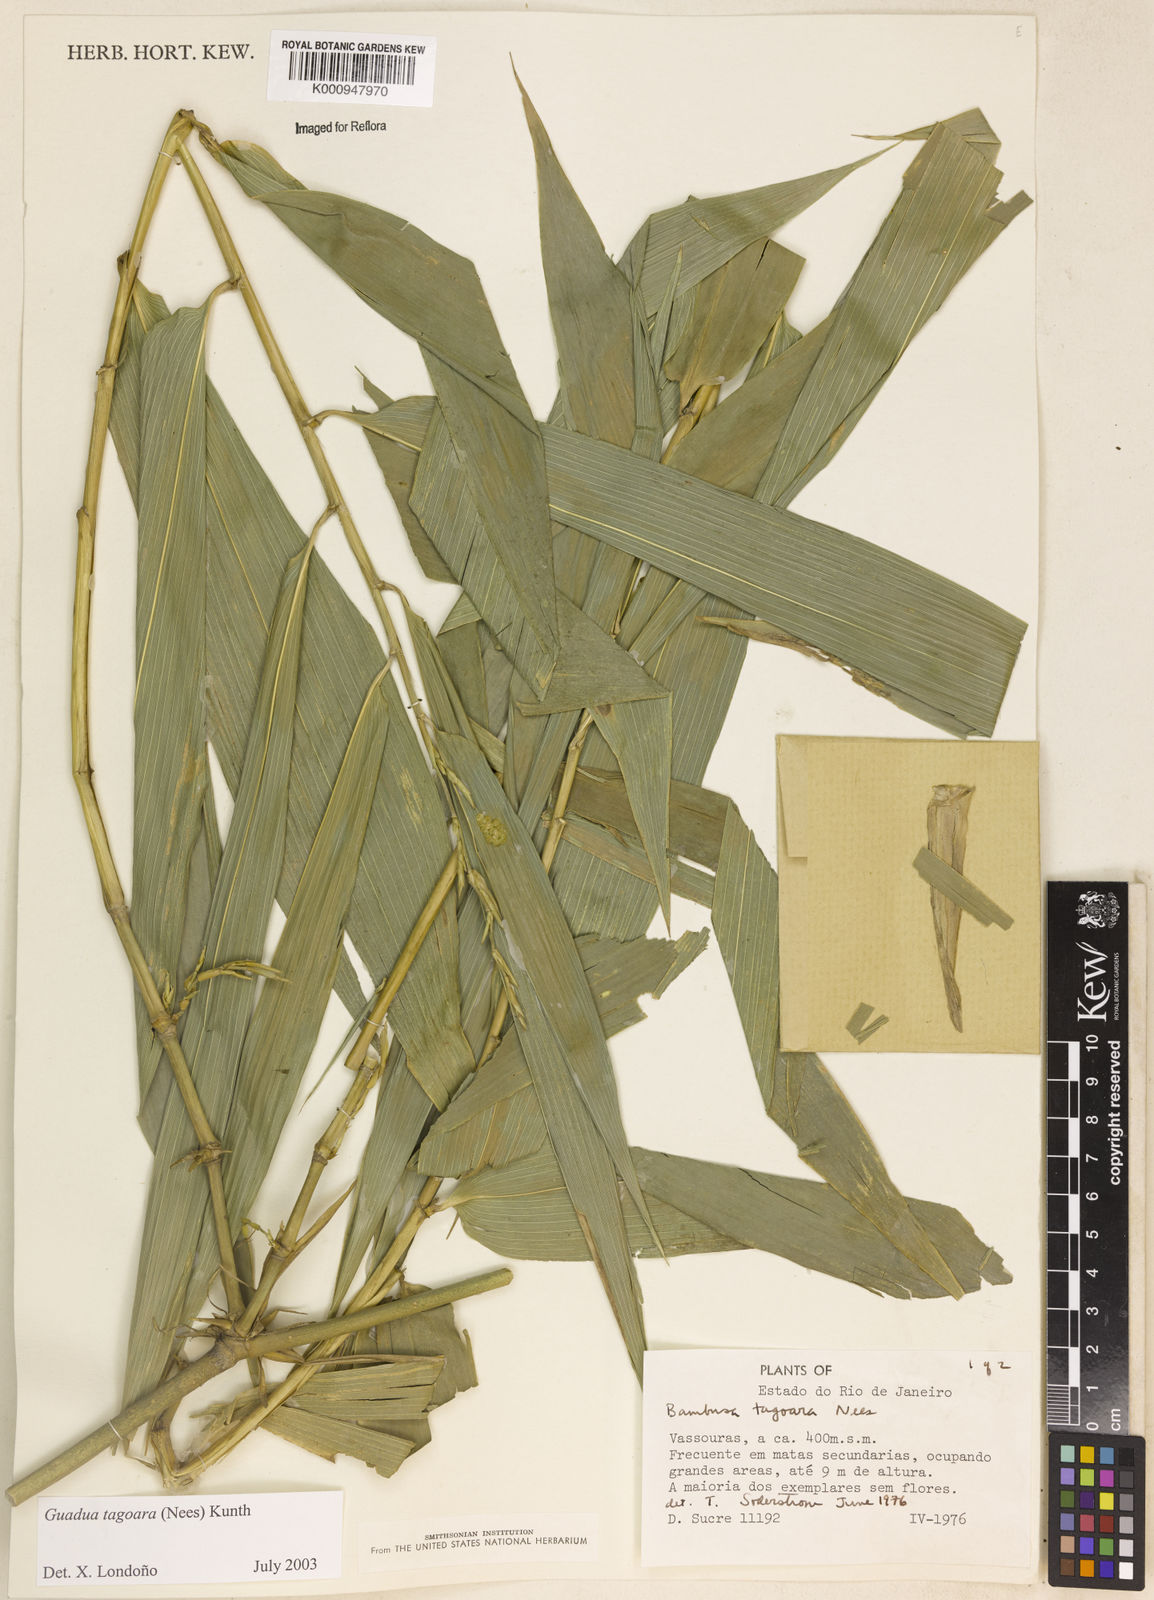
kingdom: Plantae
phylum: Tracheophyta
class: Liliopsida
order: Poales
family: Poaceae
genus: Guadua
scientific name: Guadua tagoara
